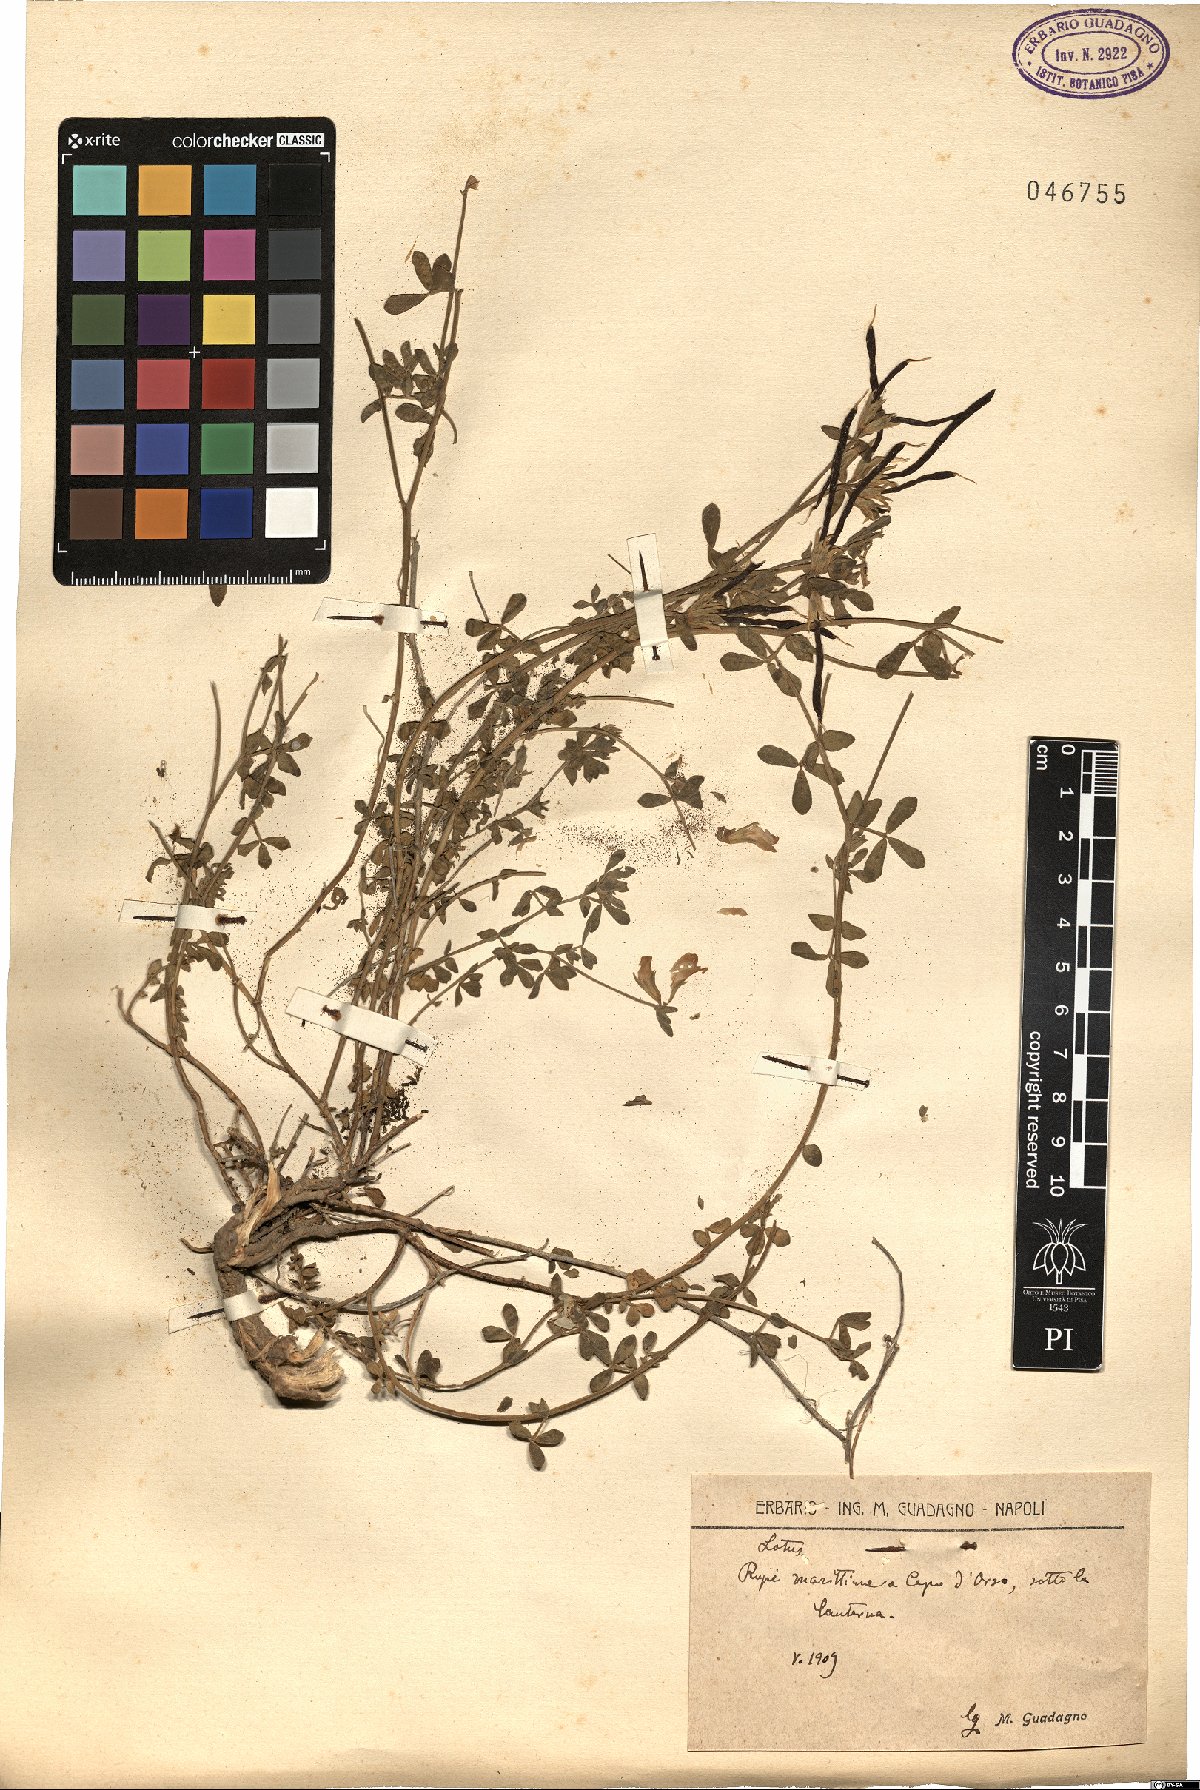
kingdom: Plantae
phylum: Tracheophyta
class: Magnoliopsida
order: Fabales
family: Fabaceae
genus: Lotus
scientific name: Lotus
